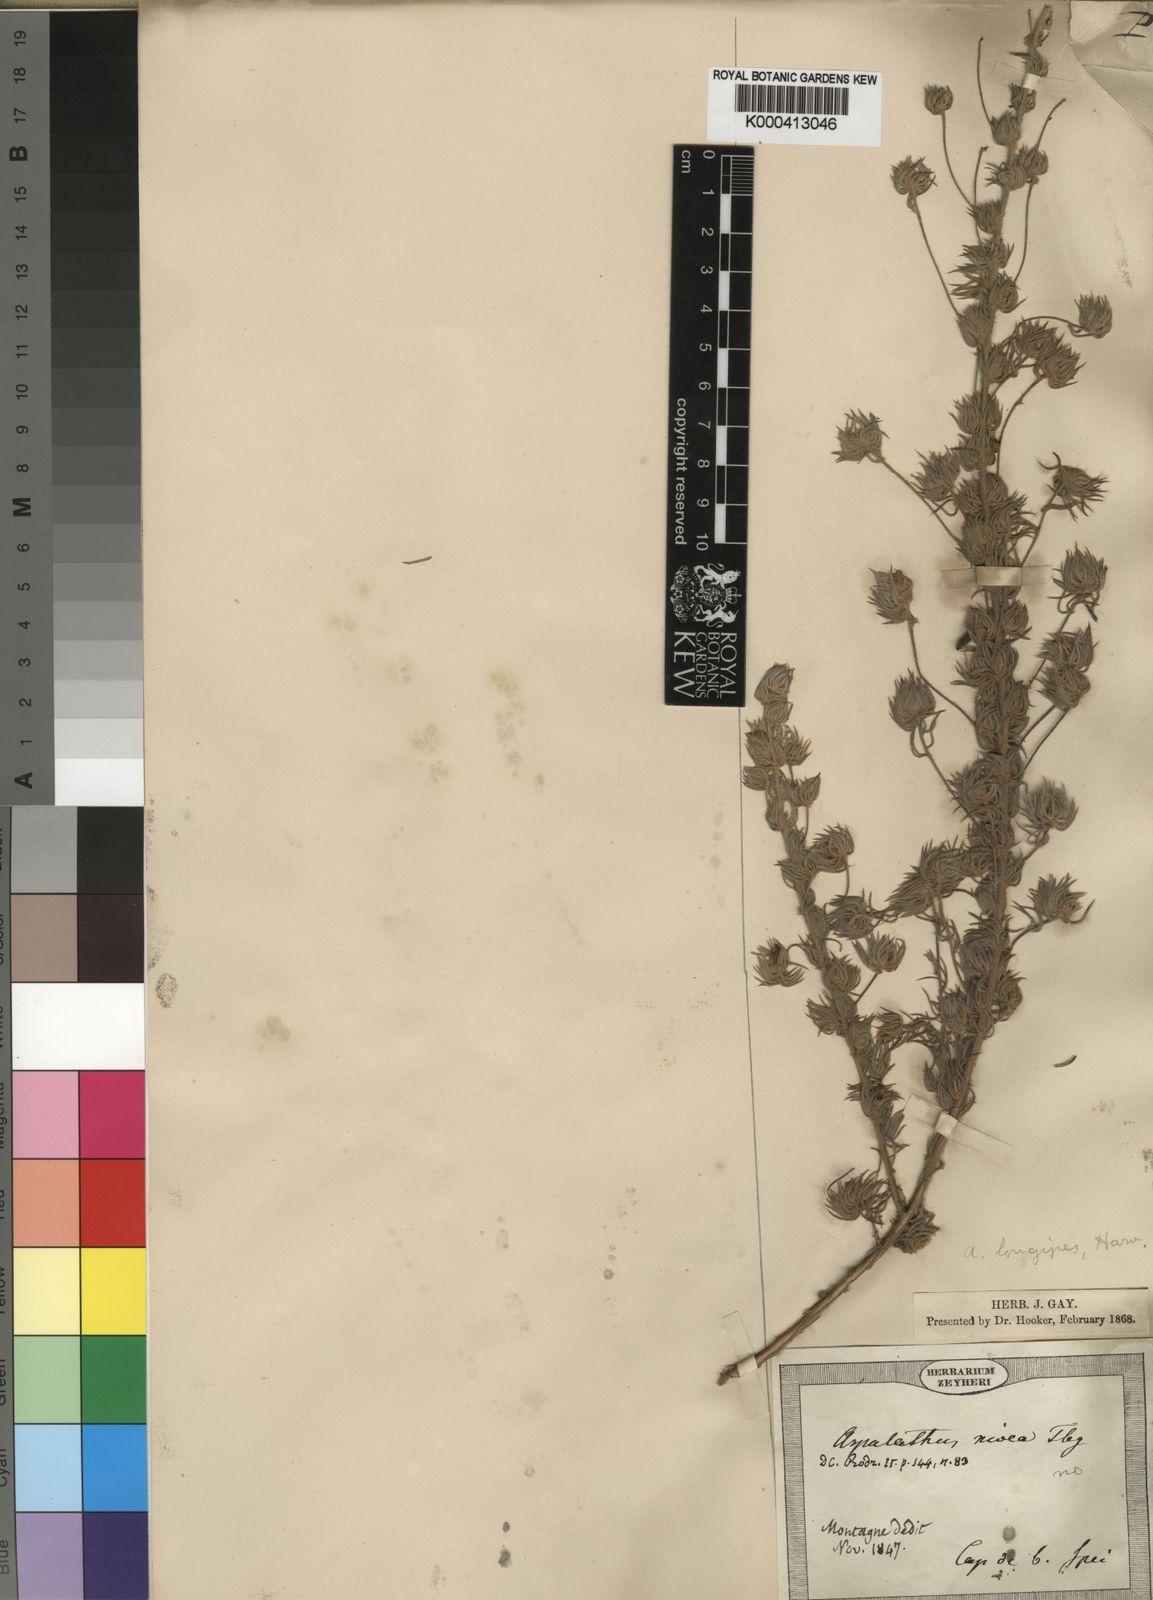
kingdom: Plantae
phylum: Tracheophyta
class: Magnoliopsida
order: Fabales
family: Fabaceae
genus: Aspalathus
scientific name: Aspalathus longipes
